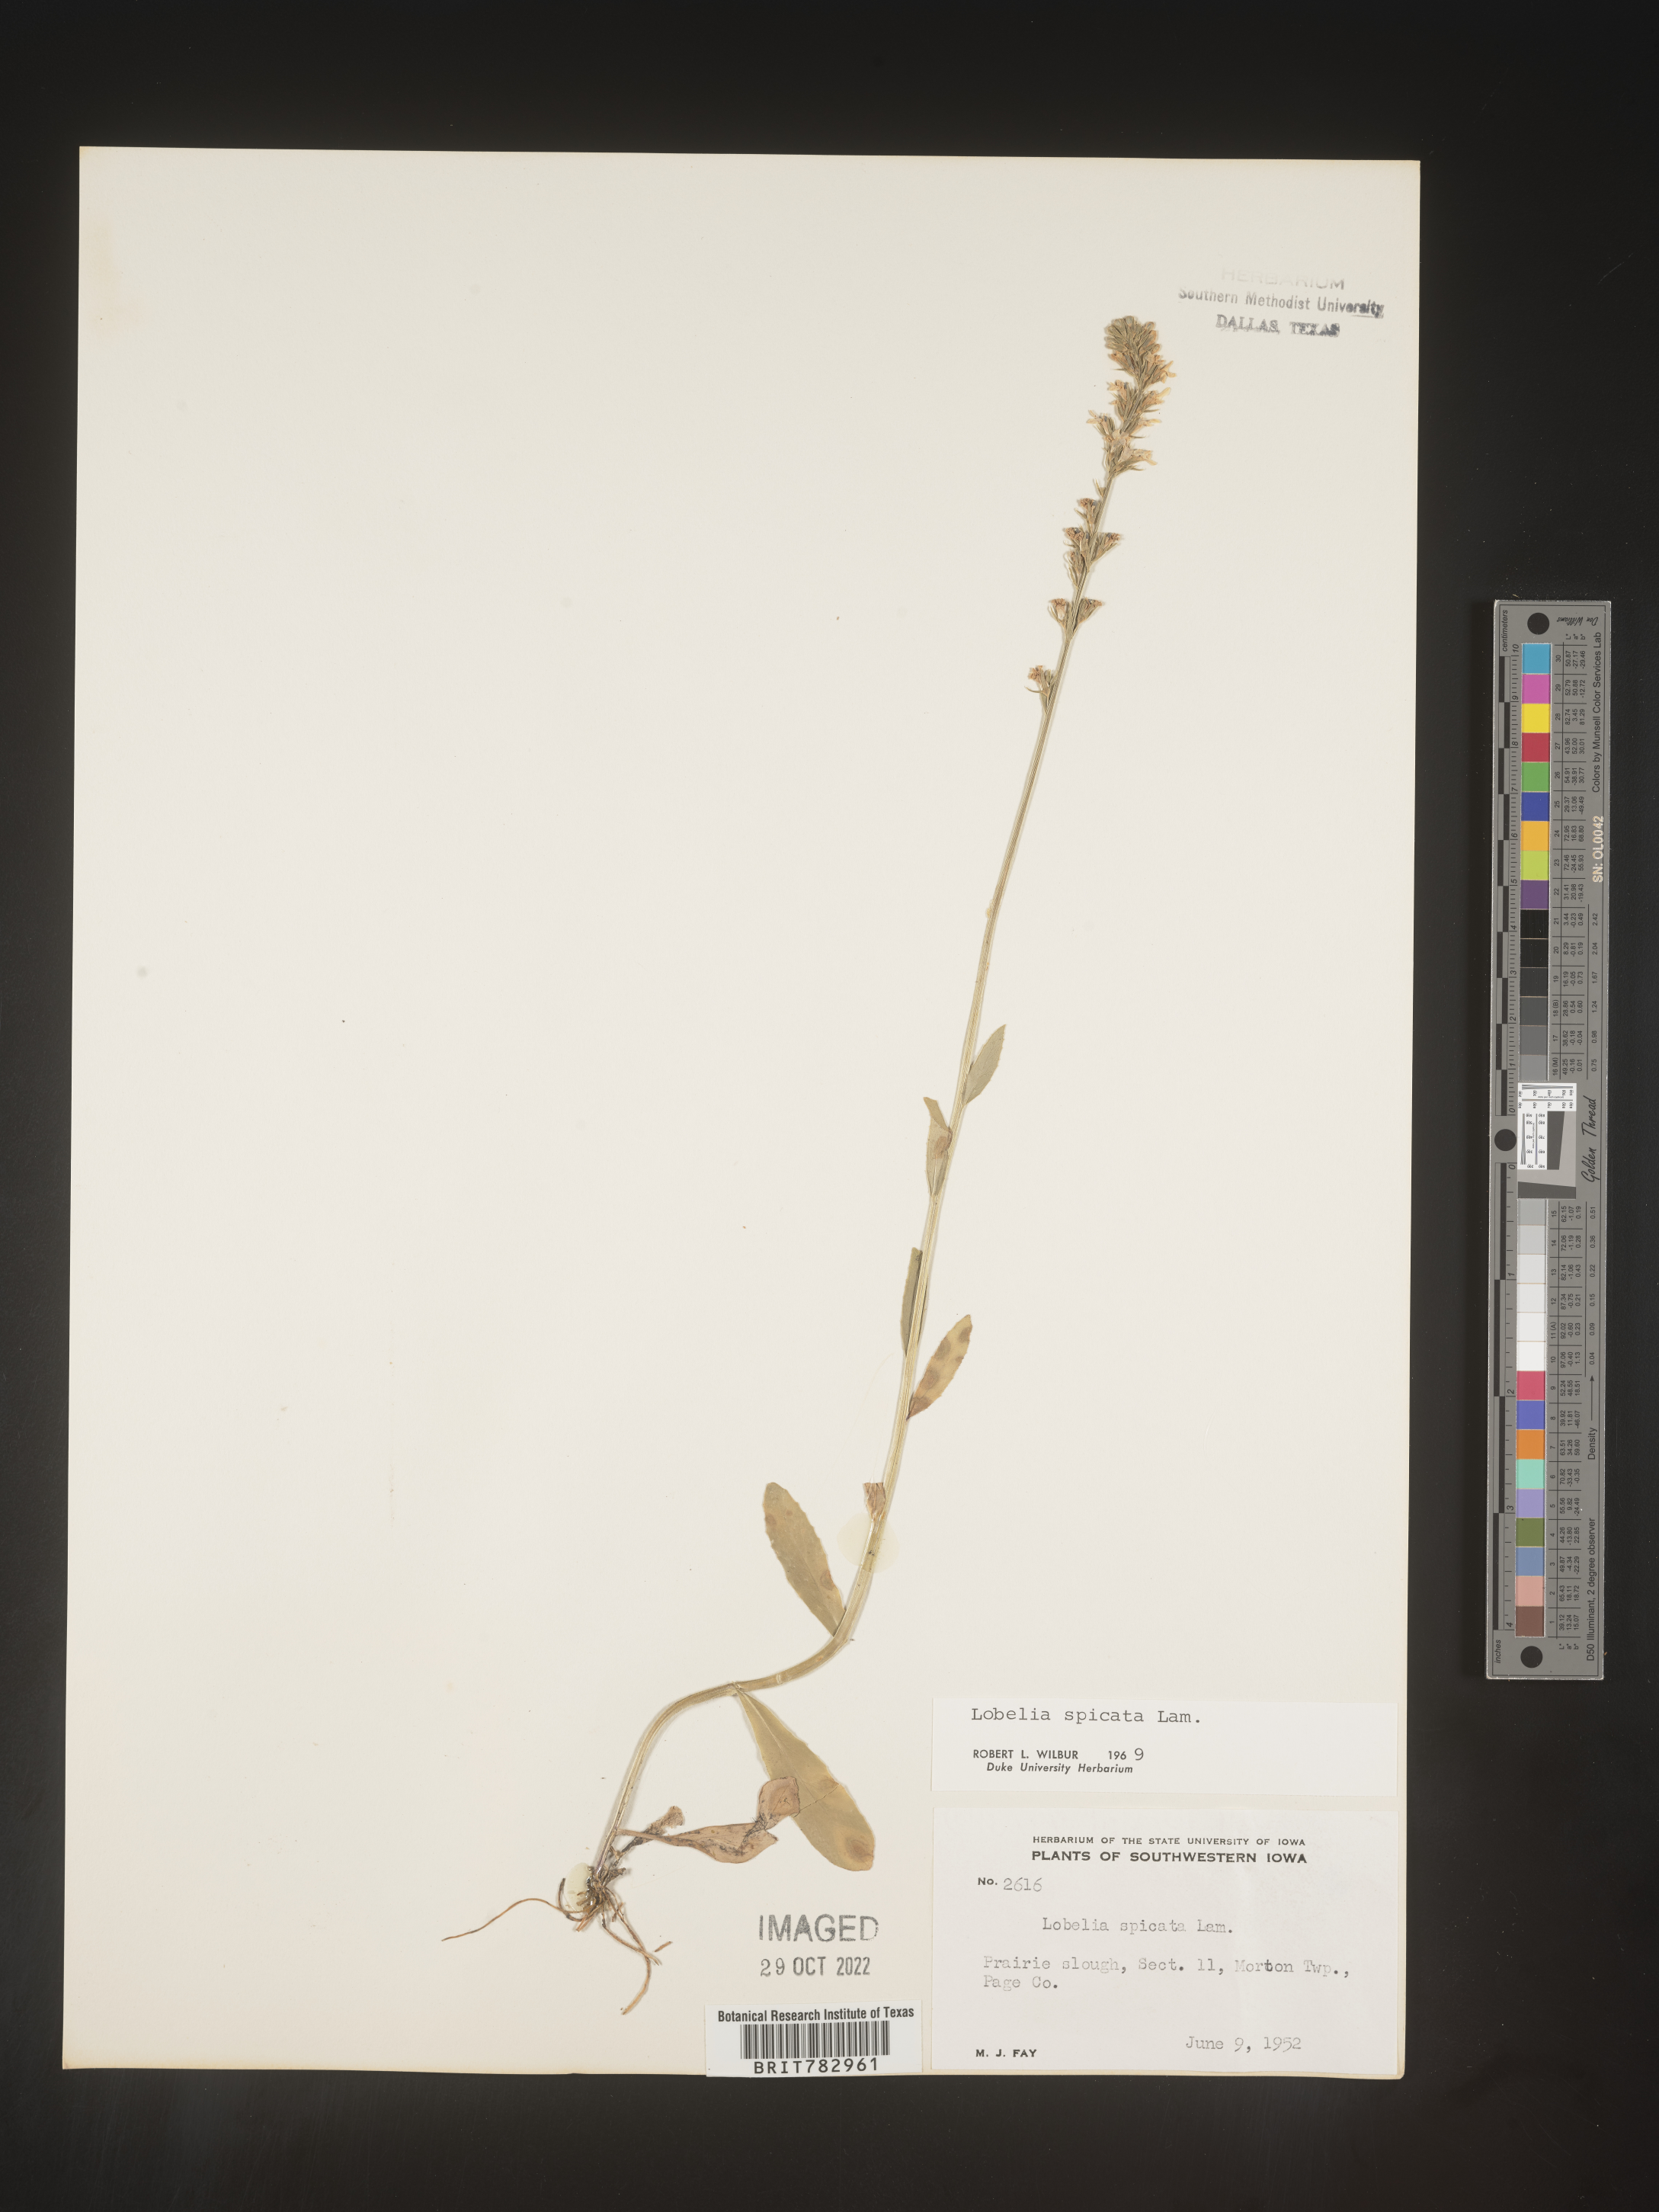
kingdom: Plantae
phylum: Tracheophyta
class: Magnoliopsida
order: Asterales
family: Campanulaceae
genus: Lobelia
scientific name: Lobelia spicata
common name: Pale-spike lobelia
